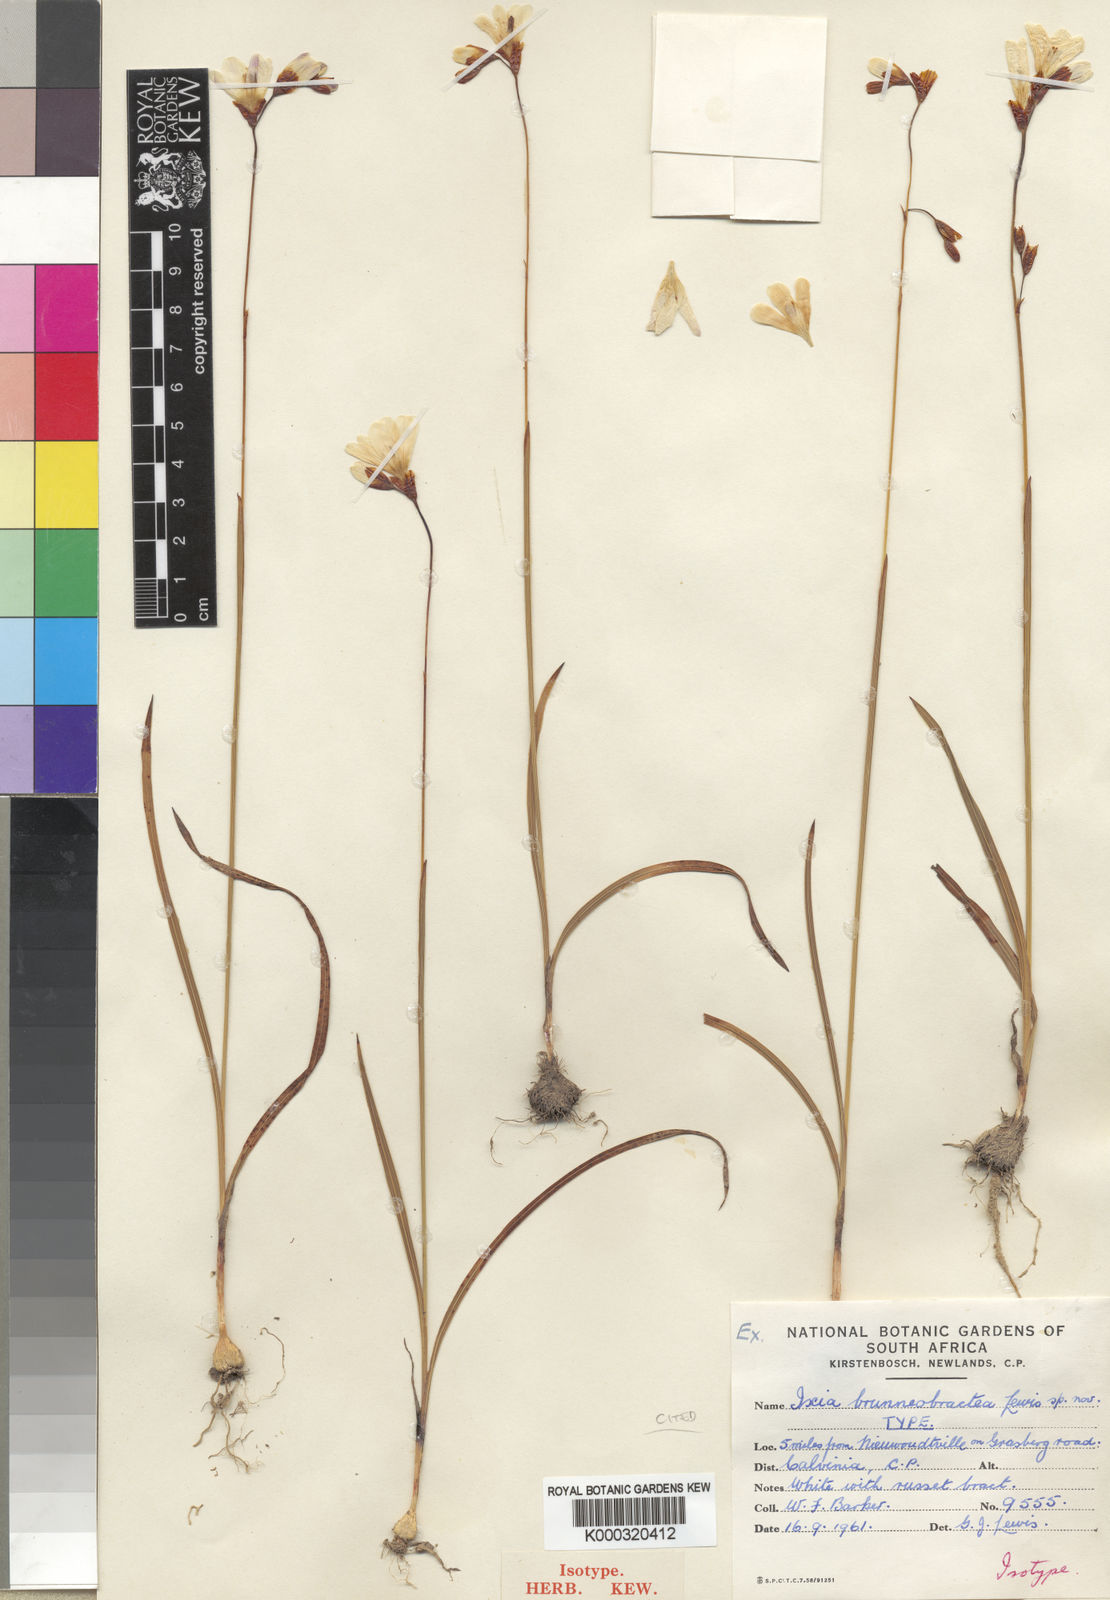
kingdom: Plantae
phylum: Tracheophyta
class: Liliopsida
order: Asparagales
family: Iridaceae
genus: Ixia
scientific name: Ixia brunneobractea
